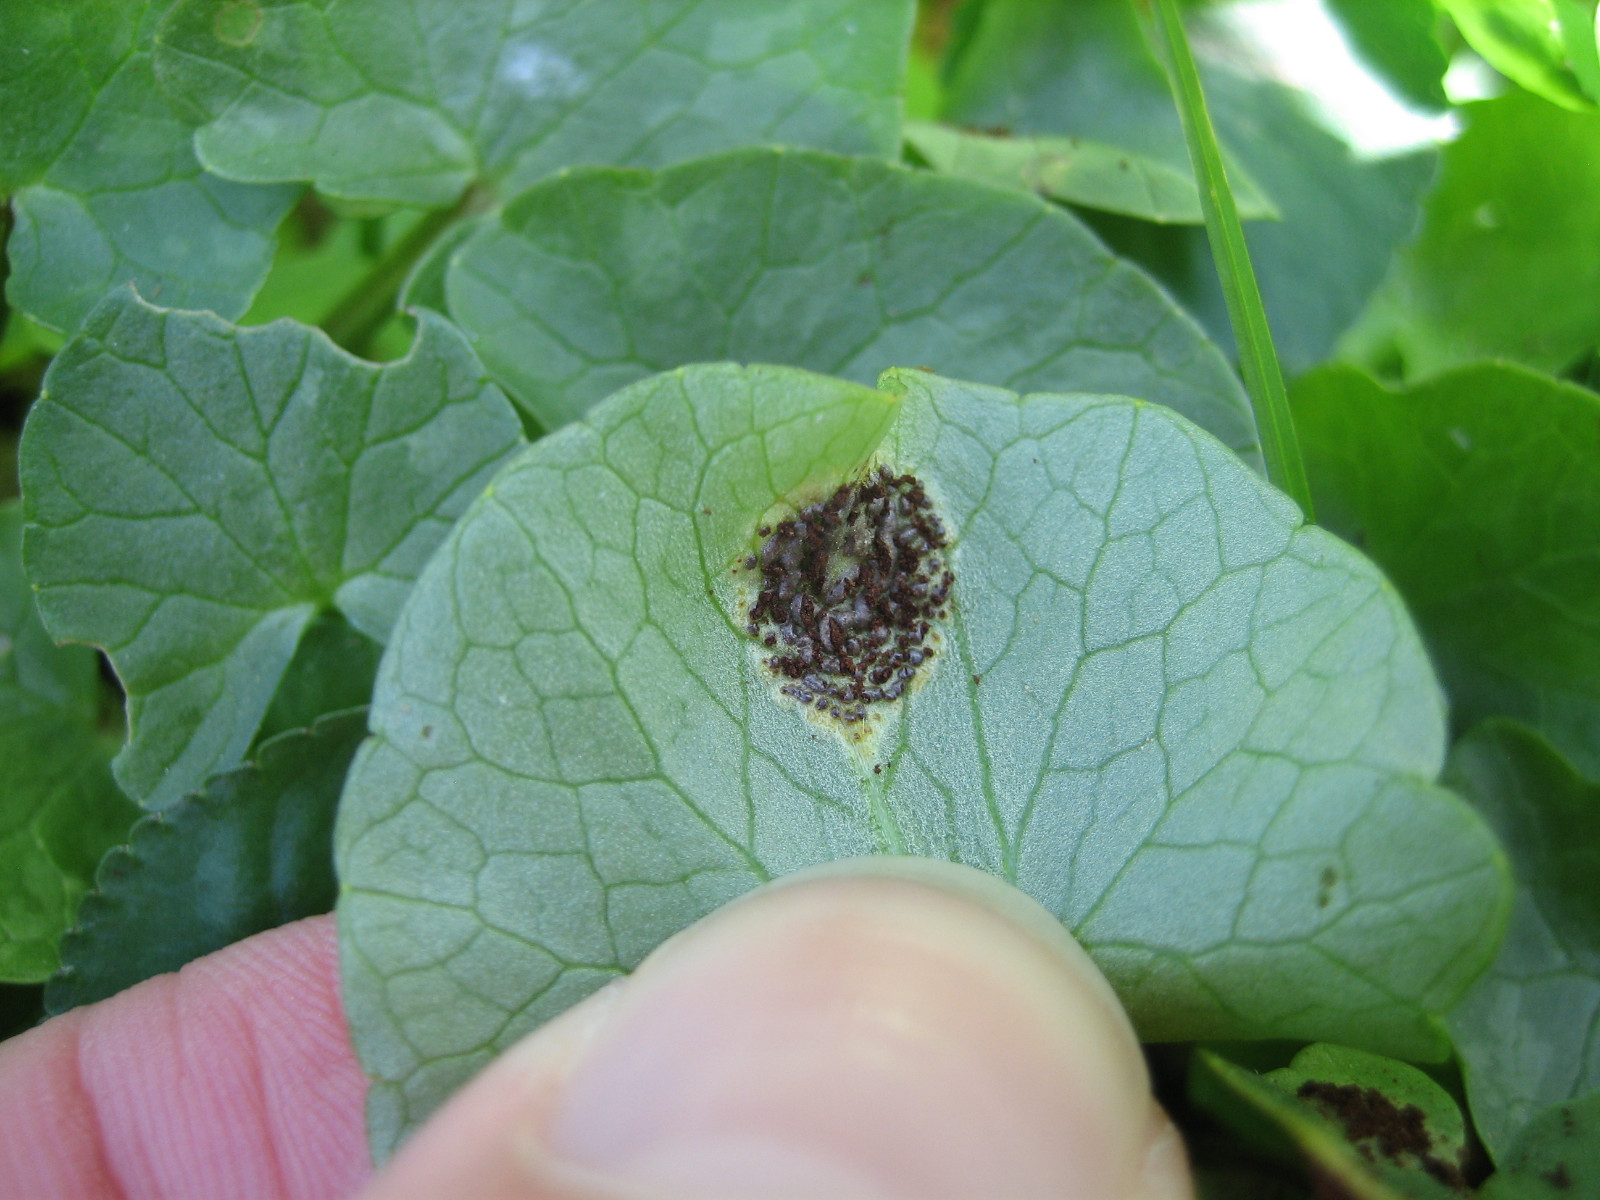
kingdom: Fungi
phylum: Basidiomycota
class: Pucciniomycetes
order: Pucciniales
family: Pucciniaceae
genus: Uromyces
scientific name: Uromyces ficariae
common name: vorterod-encellerust
